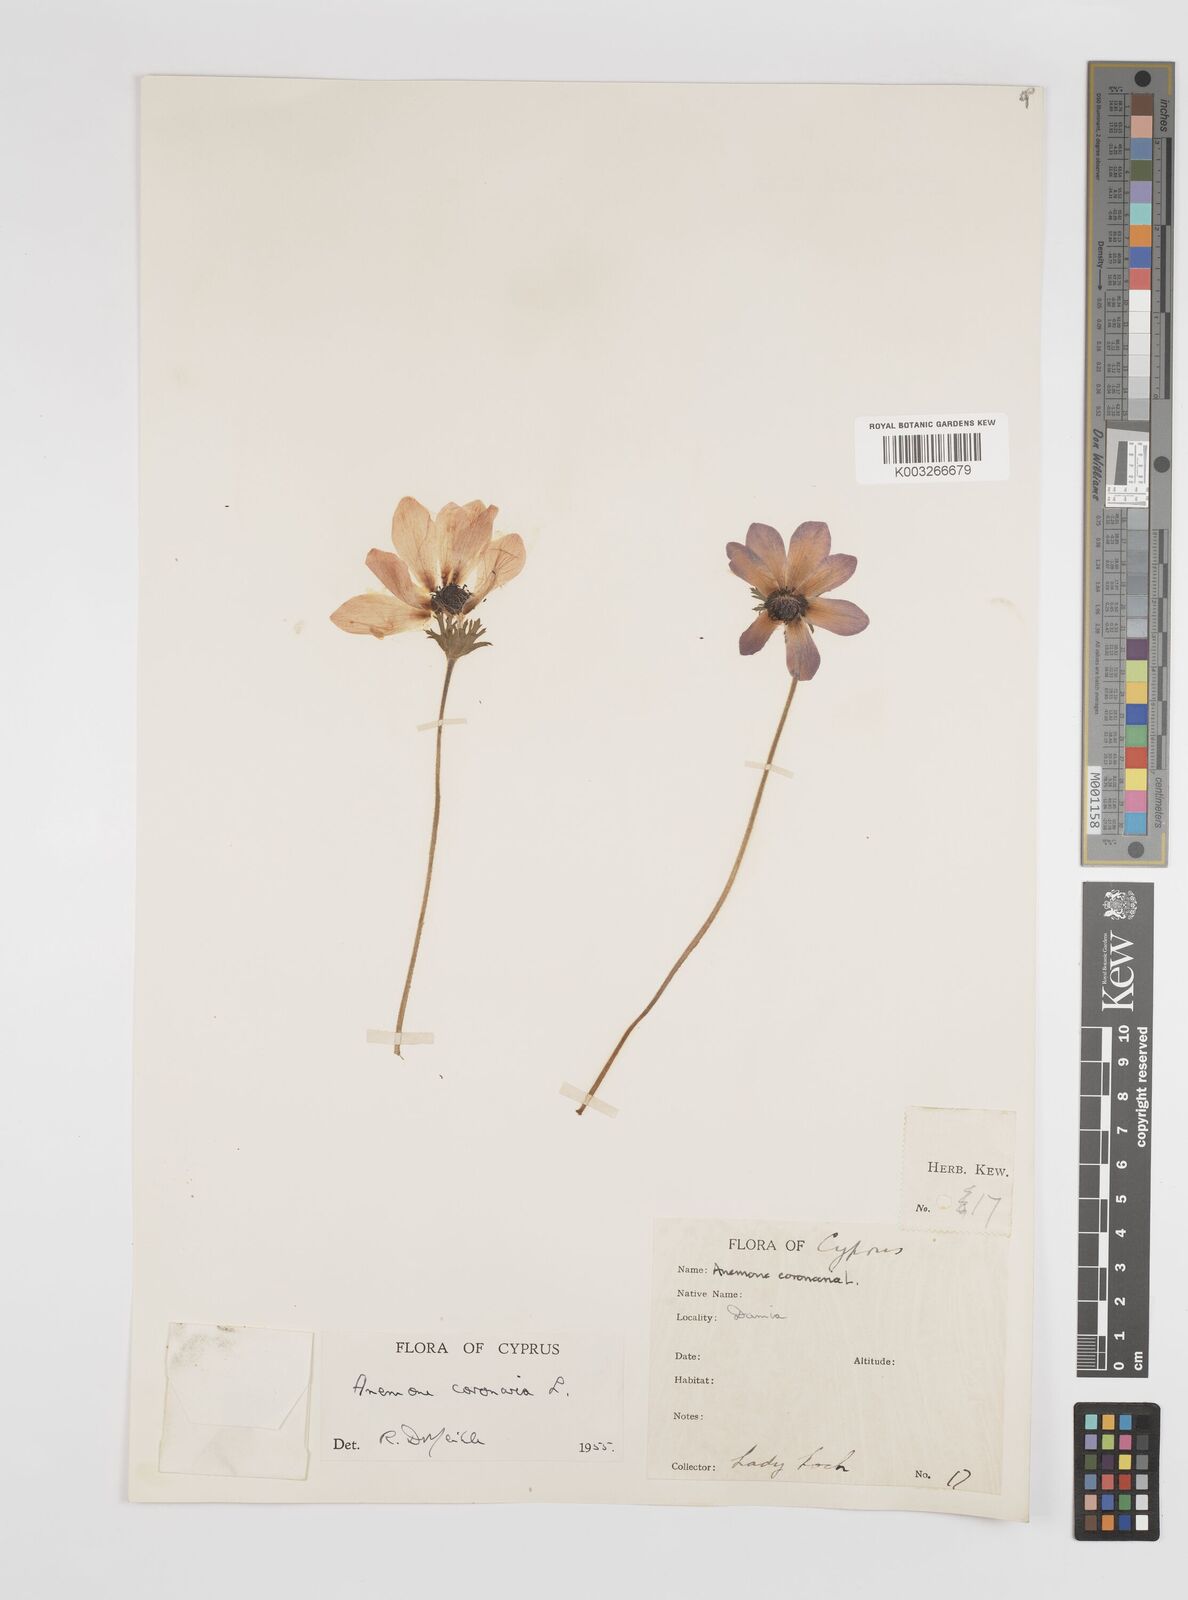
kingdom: Plantae
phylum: Tracheophyta
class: Magnoliopsida
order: Ranunculales
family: Ranunculaceae
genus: Anemone
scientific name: Anemone coronaria
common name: Poppy anemone
